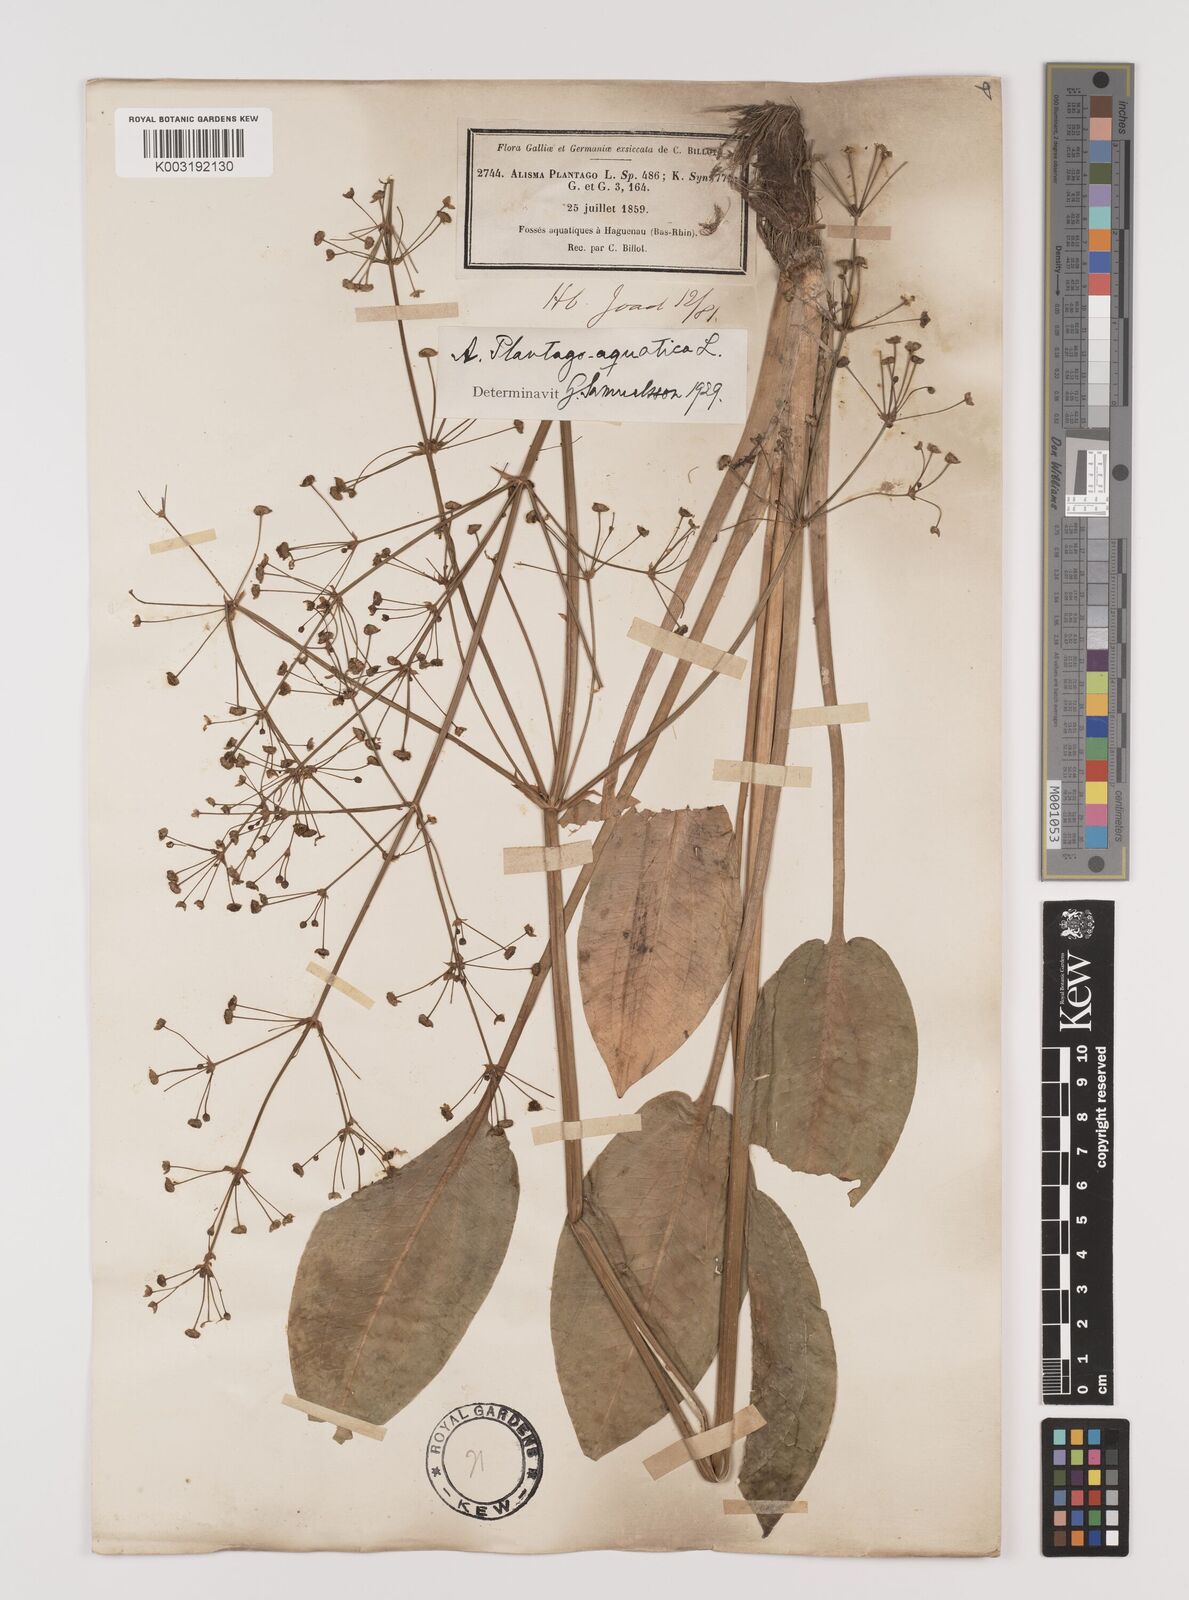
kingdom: Plantae
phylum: Tracheophyta
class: Liliopsida
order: Alismatales
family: Alismataceae
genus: Alisma
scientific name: Alisma plantago-aquatica
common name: Water-plantain
